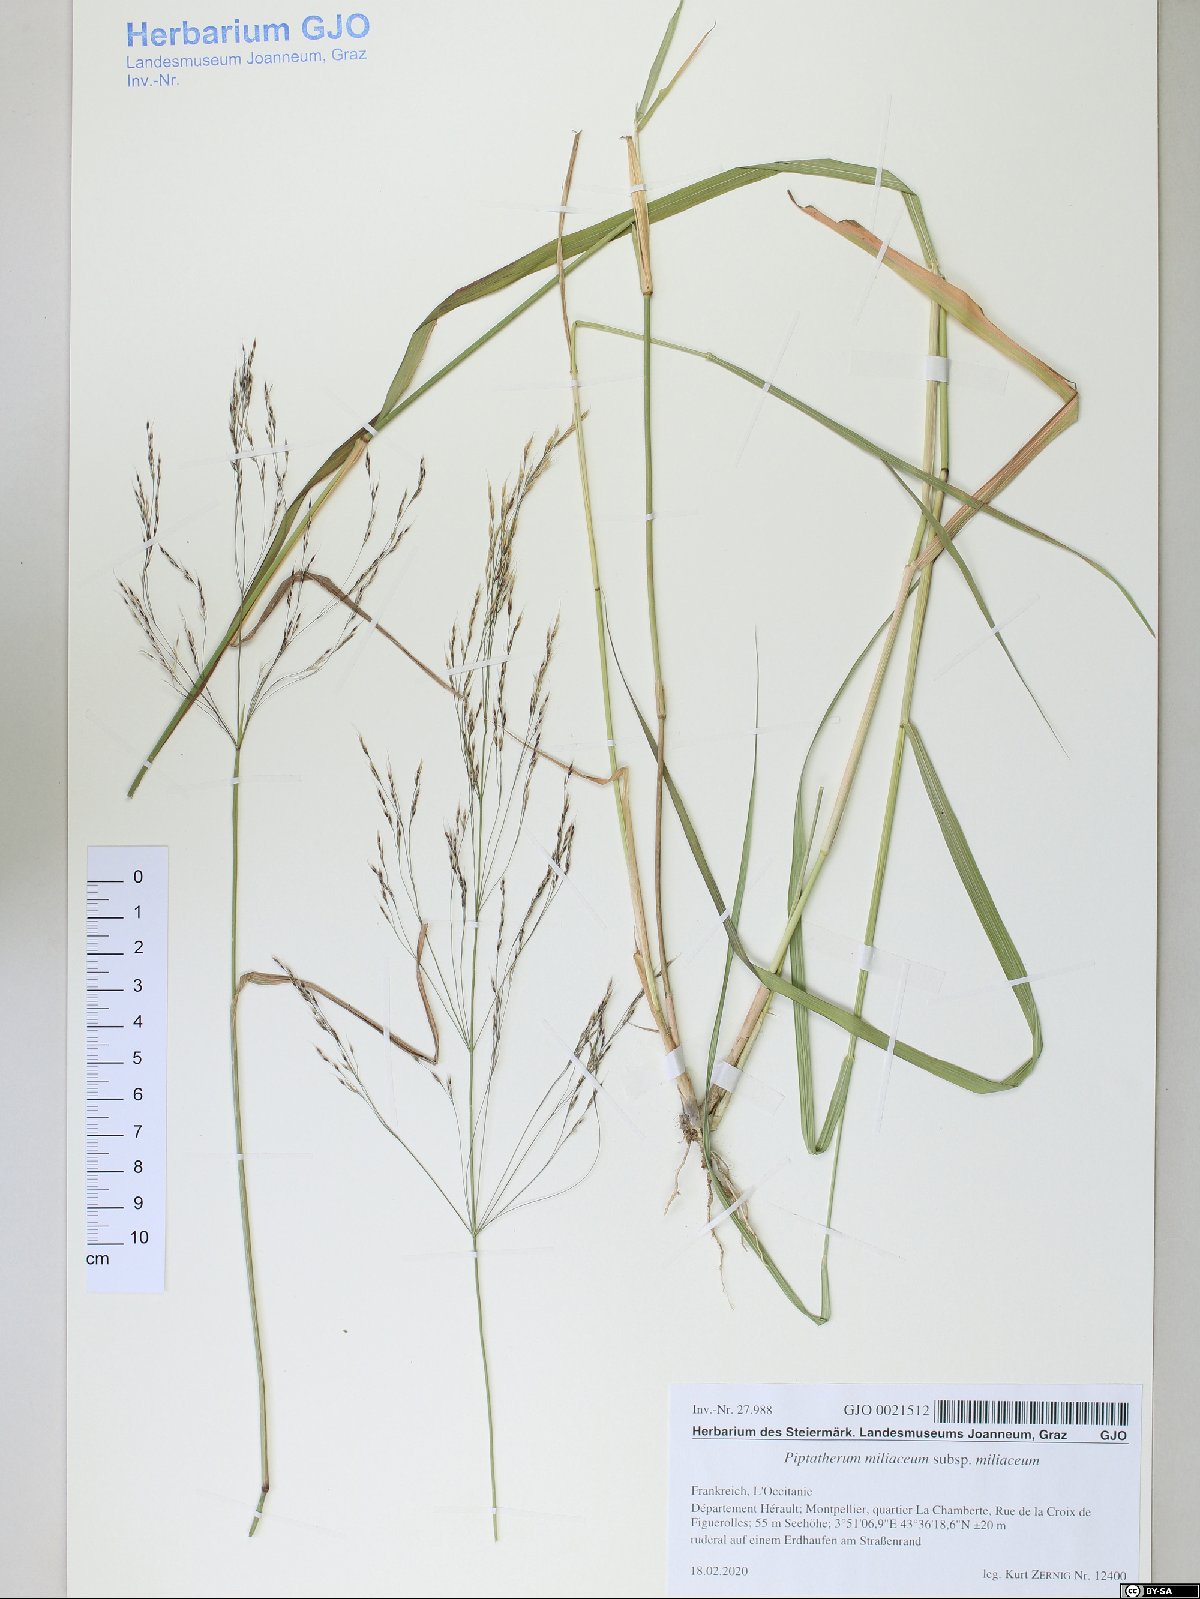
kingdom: Plantae
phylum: Tracheophyta
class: Liliopsida
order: Poales
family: Poaceae
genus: Oloptum
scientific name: Oloptum miliaceum
